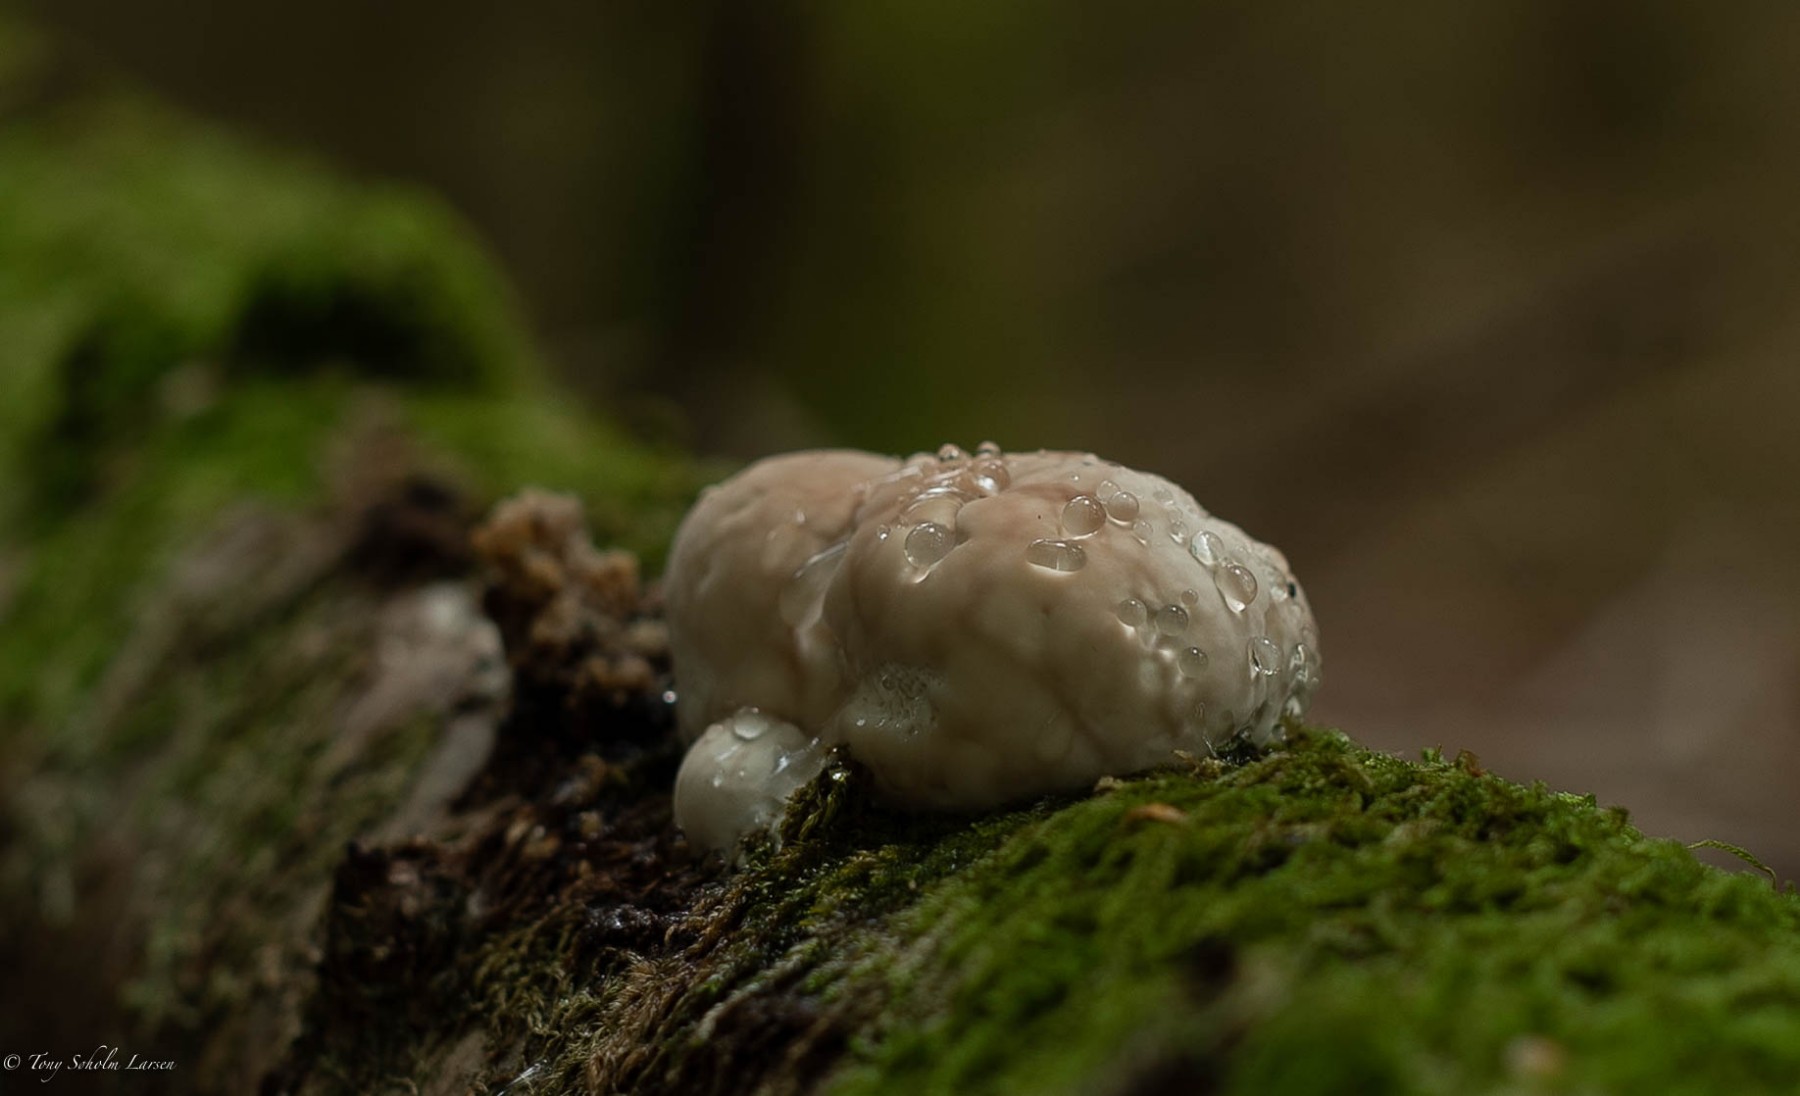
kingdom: Fungi
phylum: Basidiomycota
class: Agaricomycetes
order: Polyporales
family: Fomitopsidaceae
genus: Fomitopsis
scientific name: Fomitopsis pinicola
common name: randbæltet hovporesvamp
